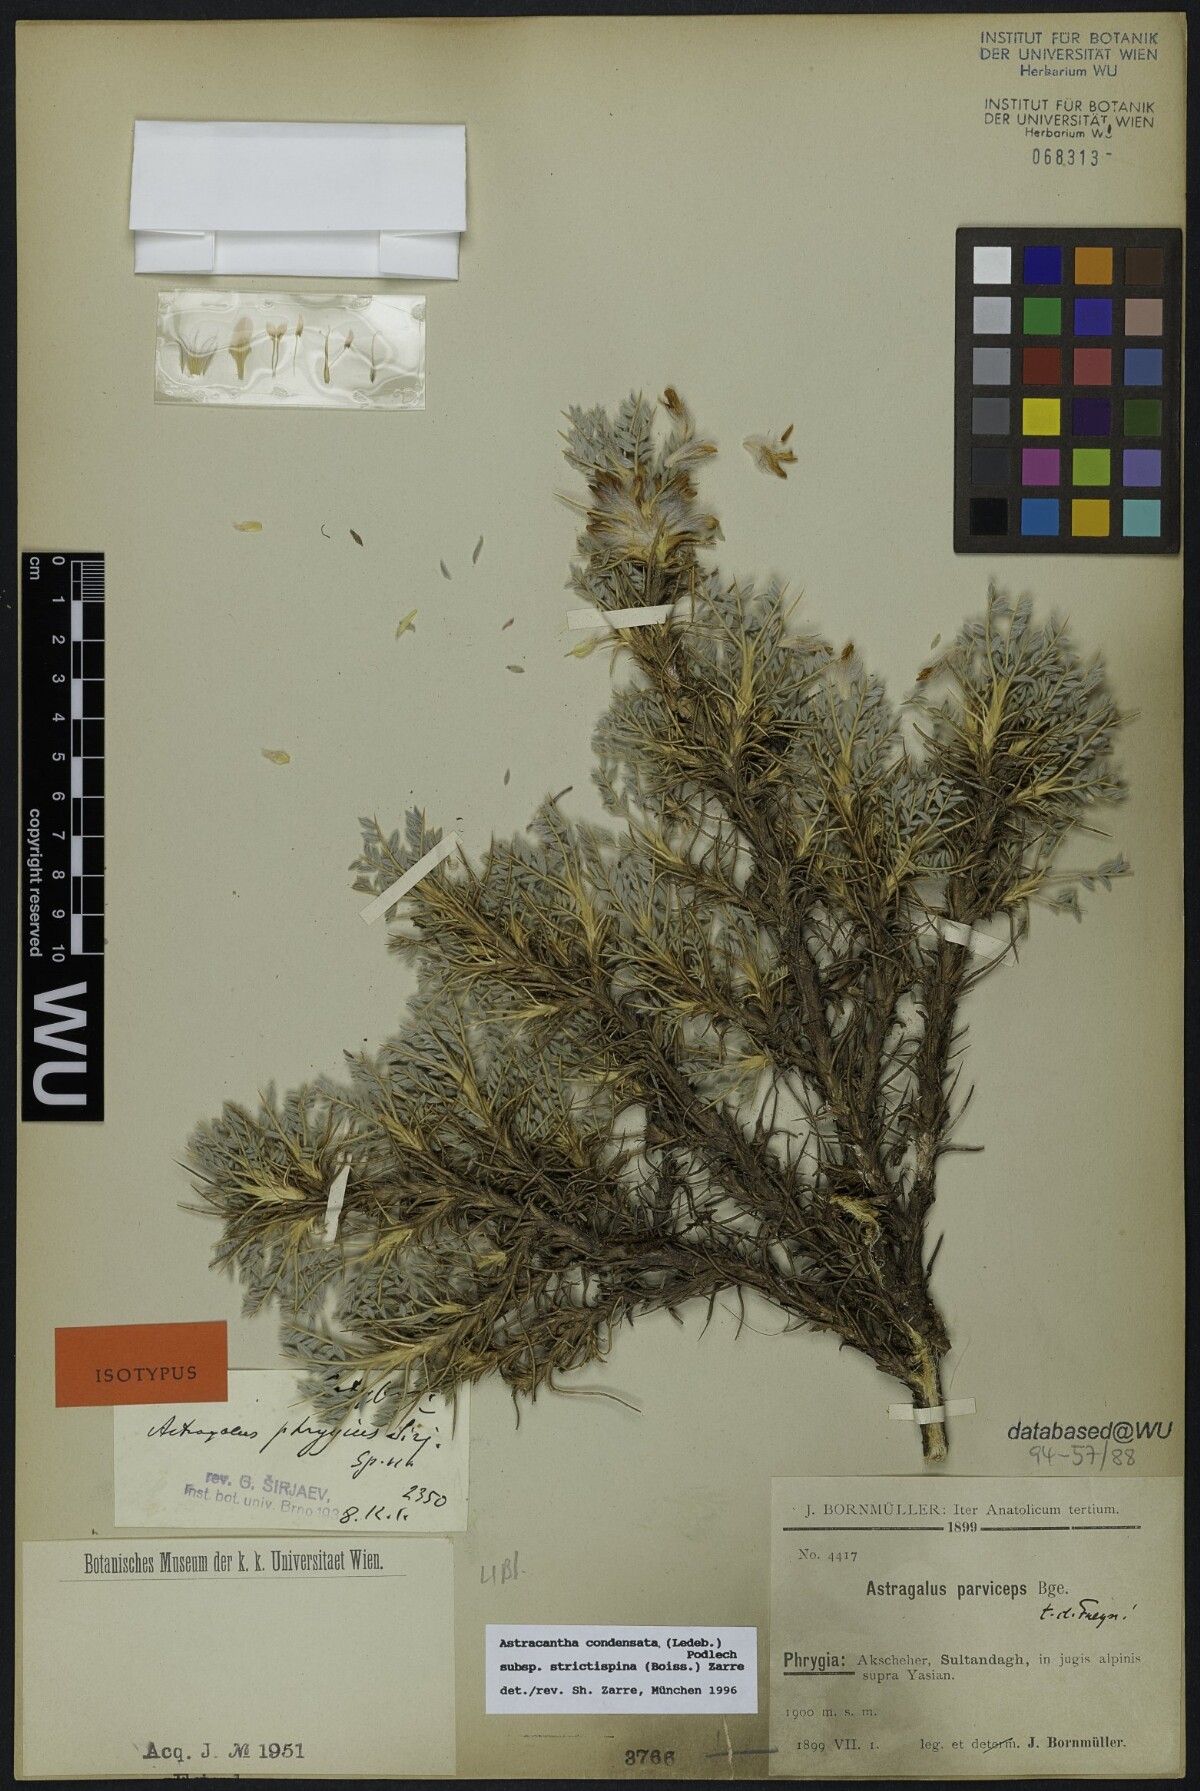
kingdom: Plantae
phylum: Tracheophyta
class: Magnoliopsida
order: Fabales
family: Fabaceae
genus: Astragalus
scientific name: Astragalus phrygius
